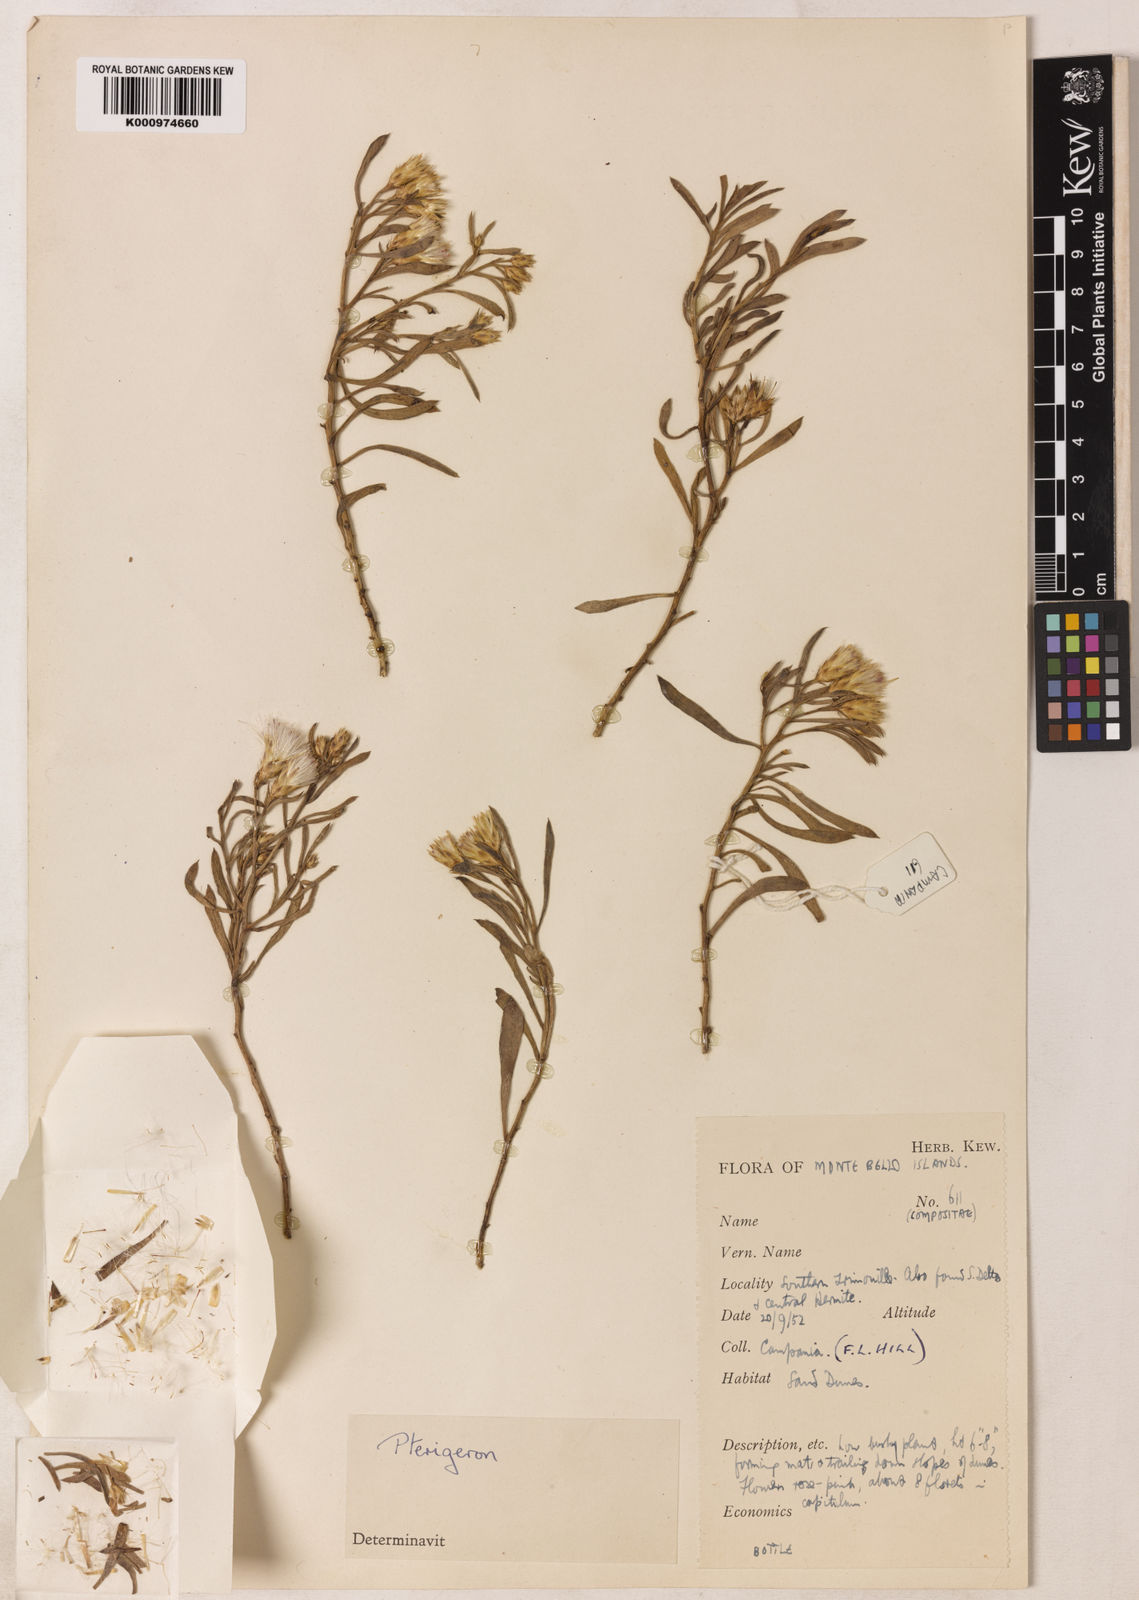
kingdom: Plantae
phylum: Tracheophyta
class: Magnoliopsida
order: Asterales
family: Asteraceae
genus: Pluchea
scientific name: Pluchea
